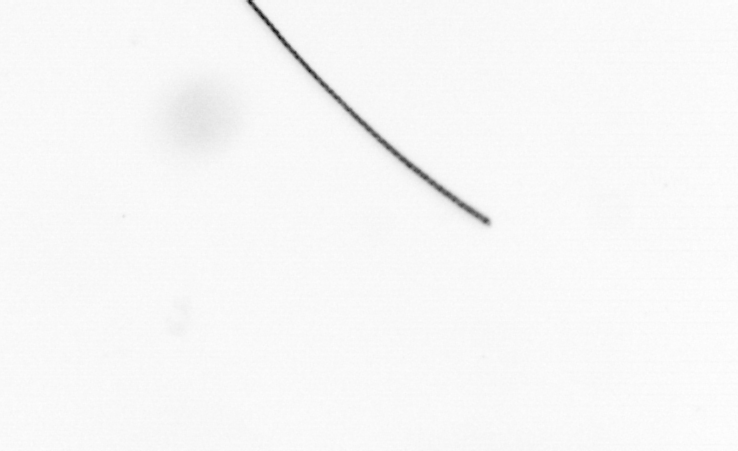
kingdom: Chromista
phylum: Ochrophyta
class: Bacillariophyceae
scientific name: Bacillariophyceae
